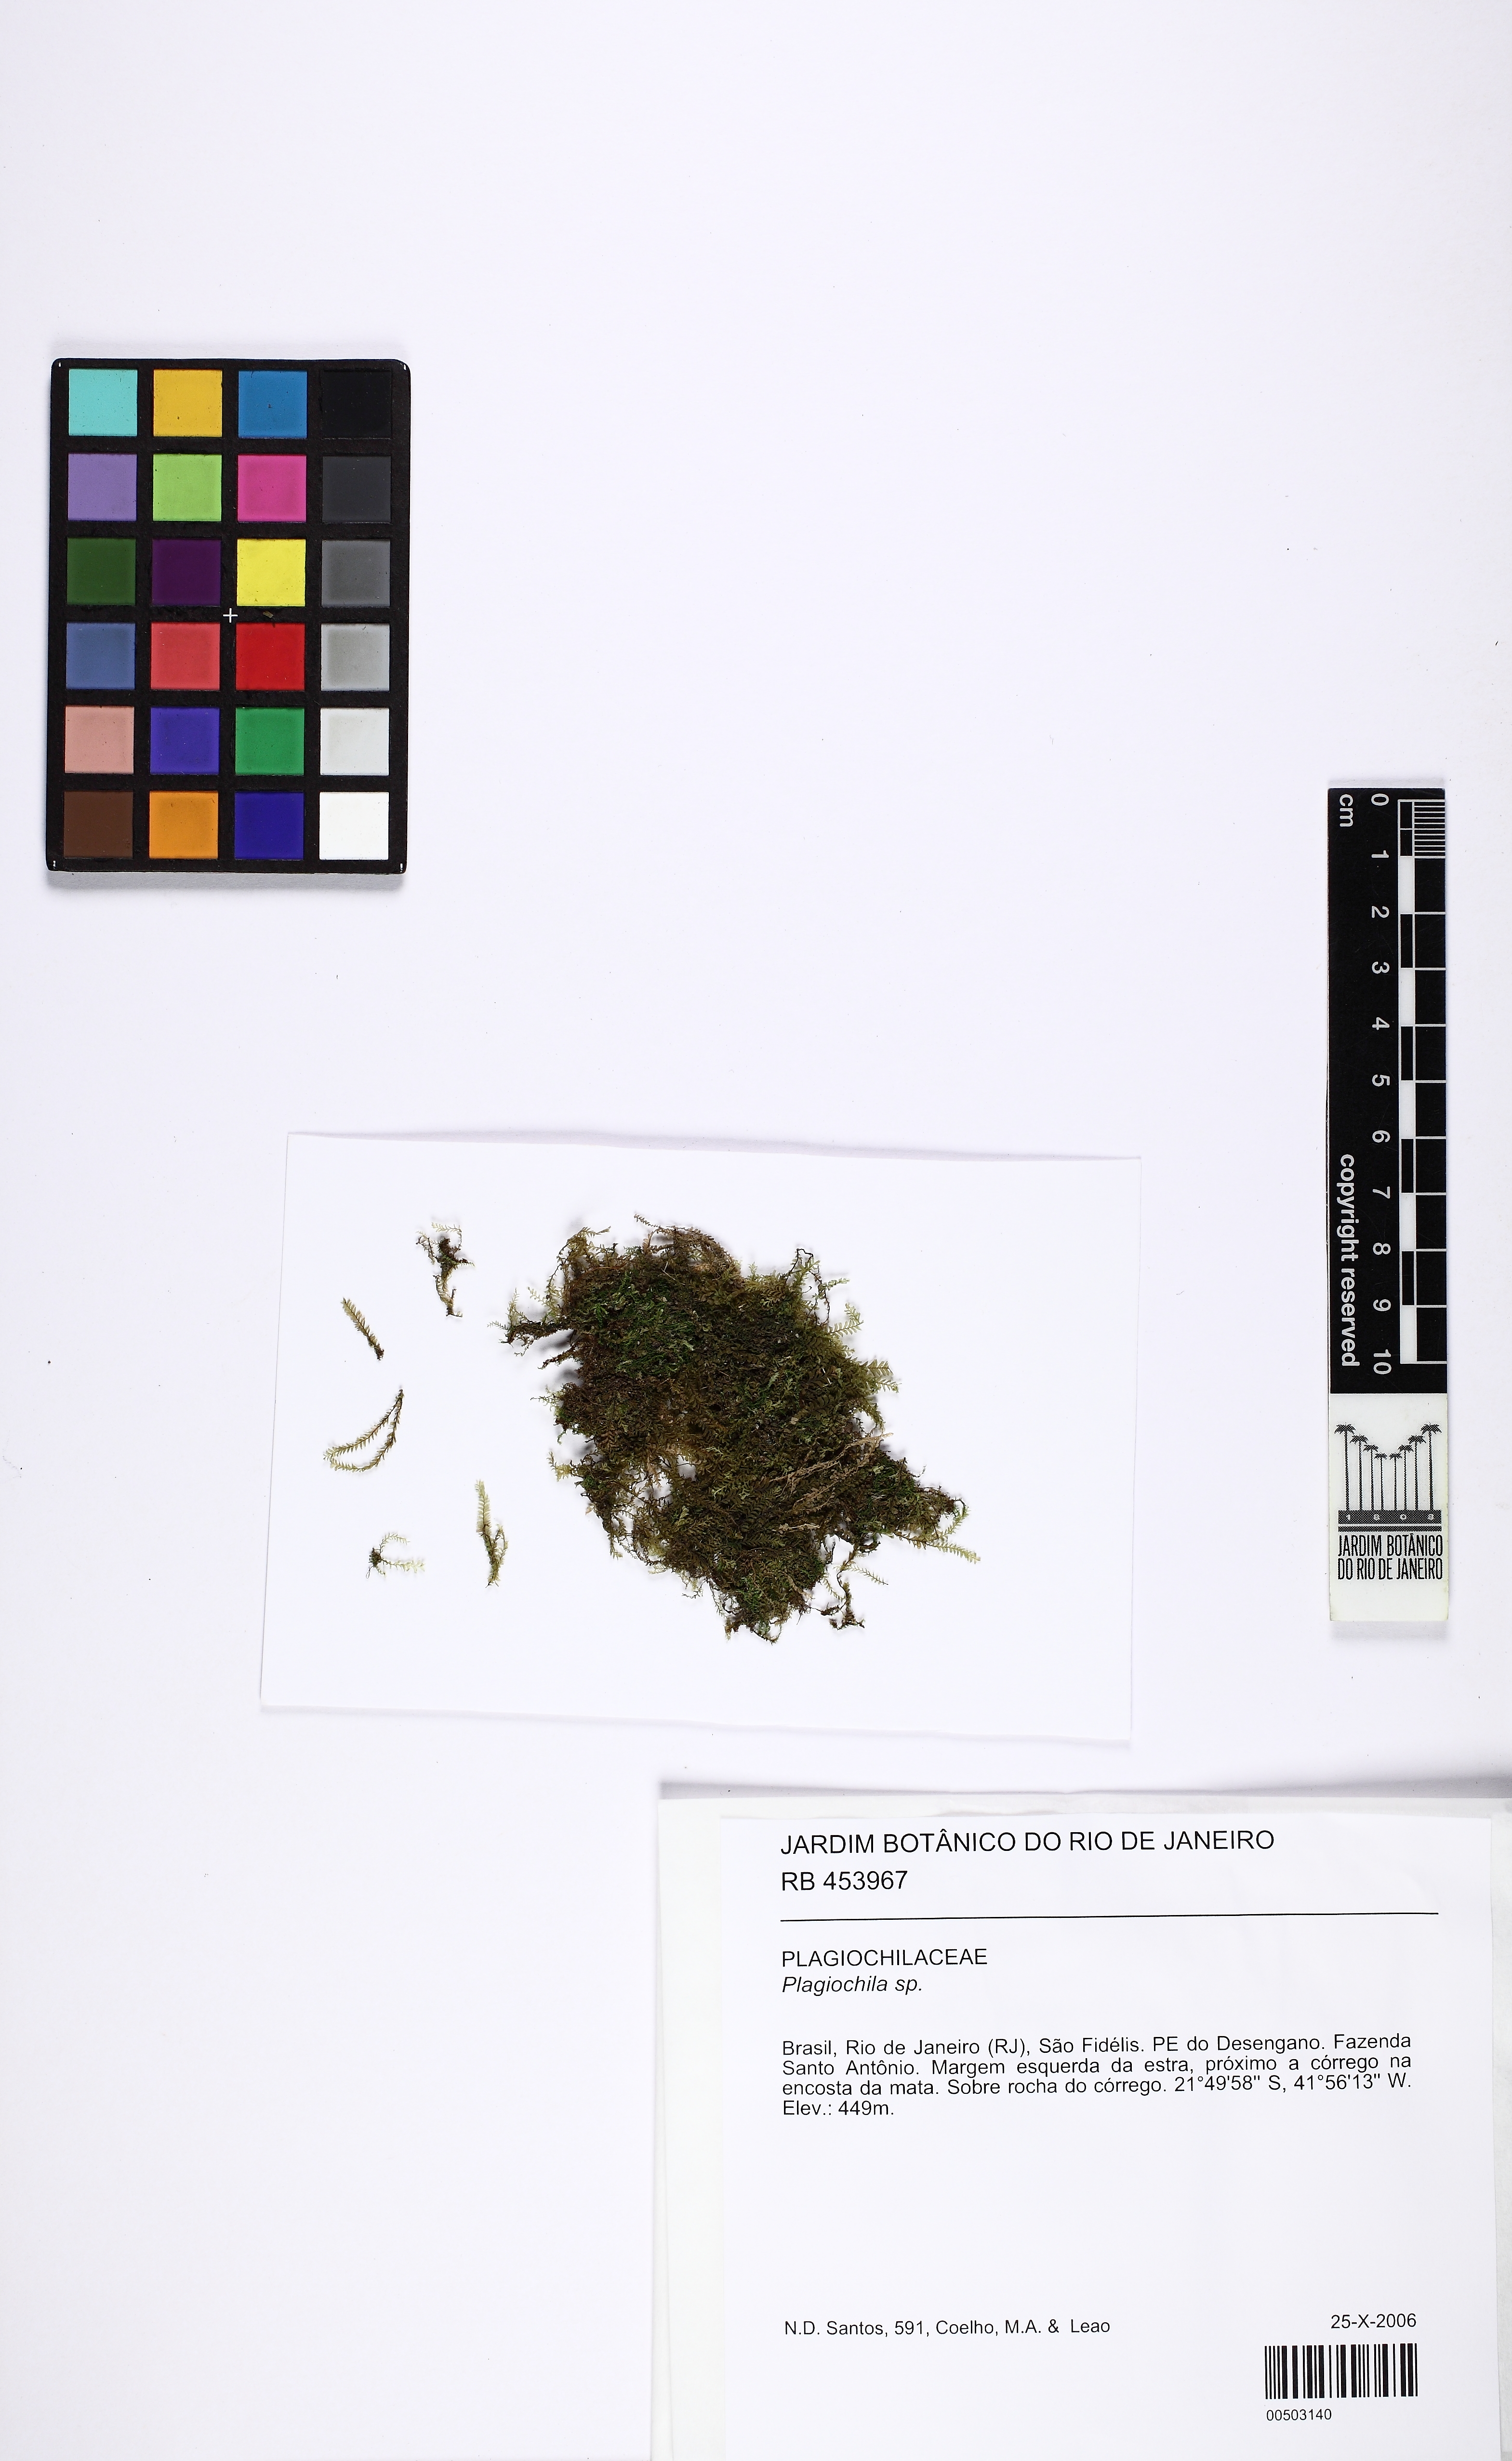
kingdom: Plantae
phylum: Marchantiophyta
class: Jungermanniopsida
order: Jungermanniales
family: Plagiochilaceae
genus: Plagiochila
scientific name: Plagiochila
